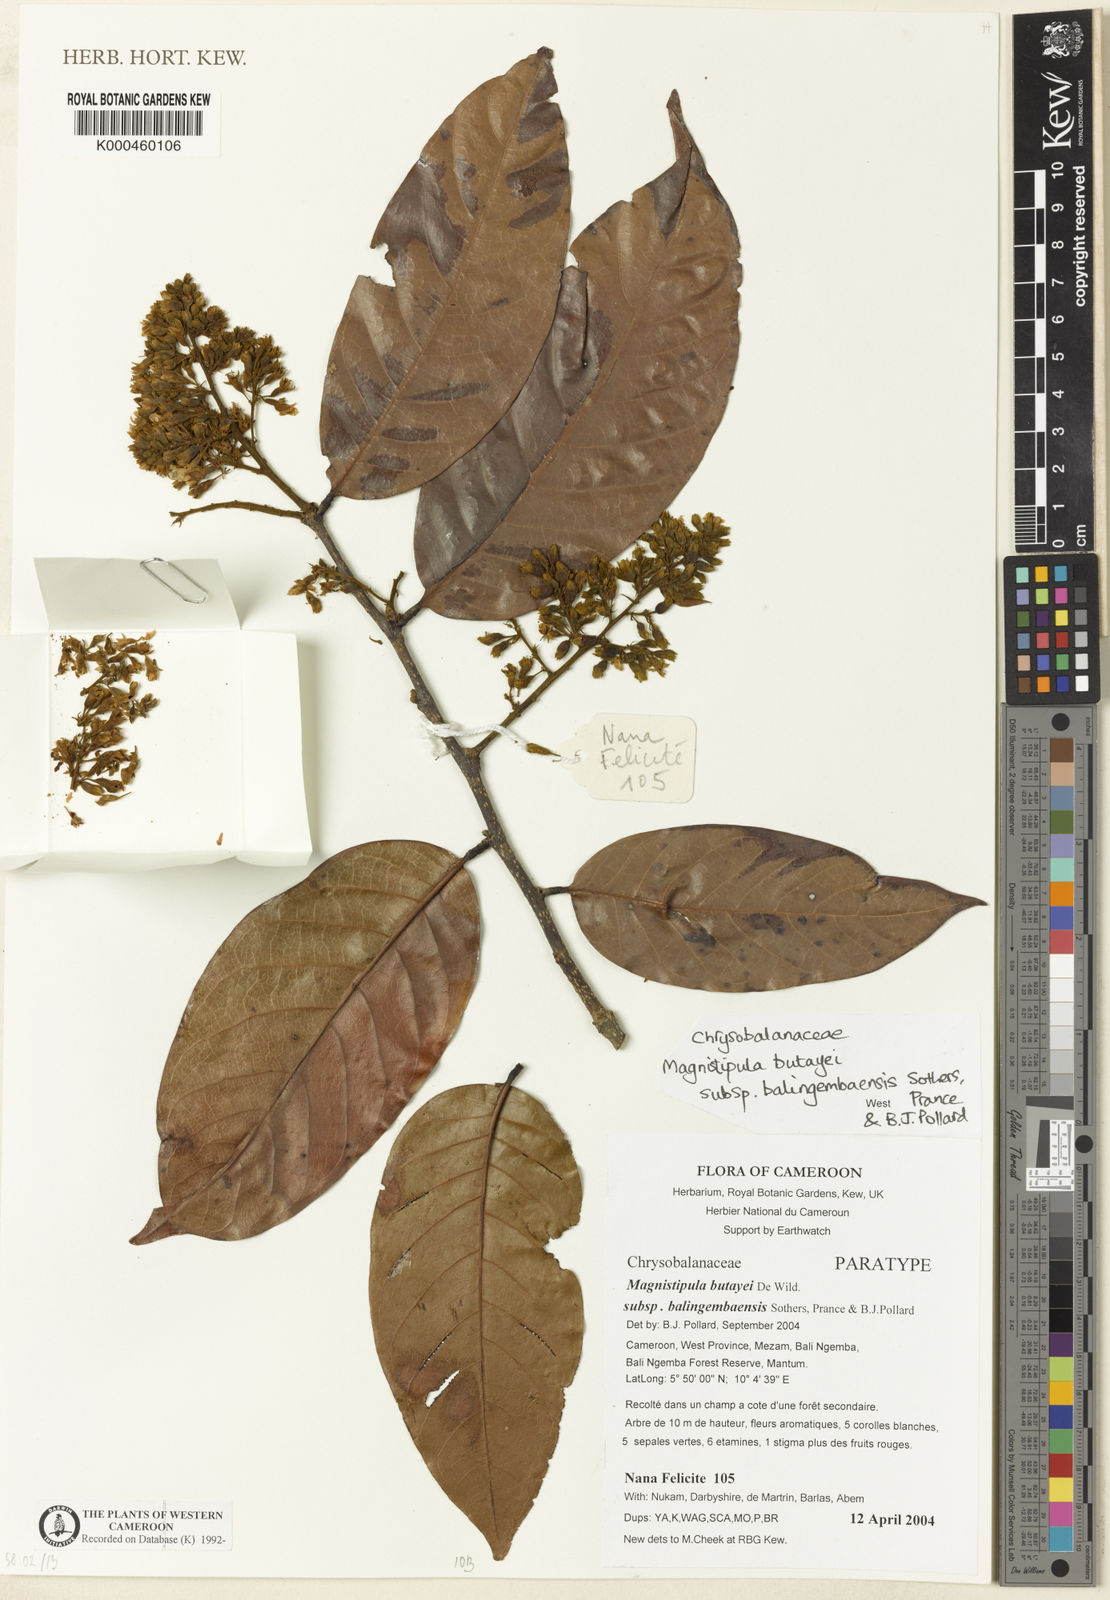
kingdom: Plantae
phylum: Tracheophyta
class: Magnoliopsida
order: Malpighiales
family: Chrysobalanaceae
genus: Magnistipula
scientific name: Magnistipula butayei
